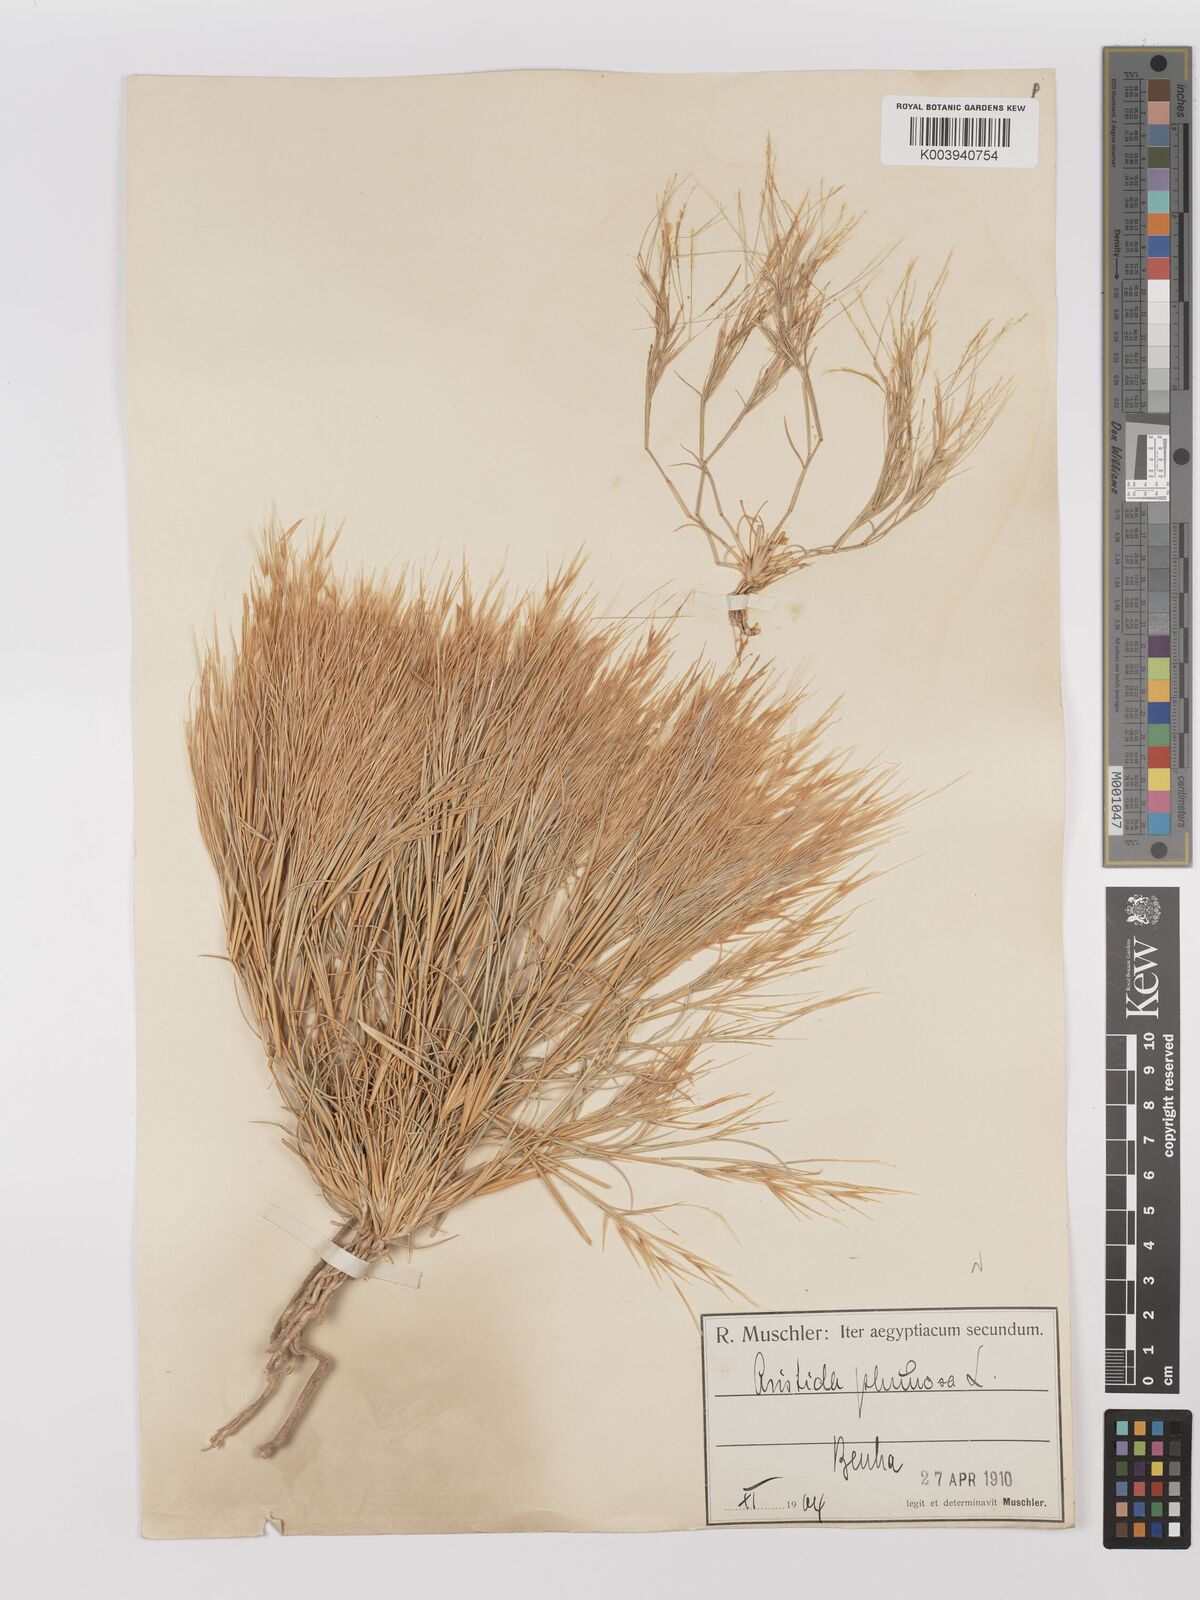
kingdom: Plantae
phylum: Tracheophyta
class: Liliopsida
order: Poales
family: Poaceae
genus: Stipagrostis
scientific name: Stipagrostis plumosa
